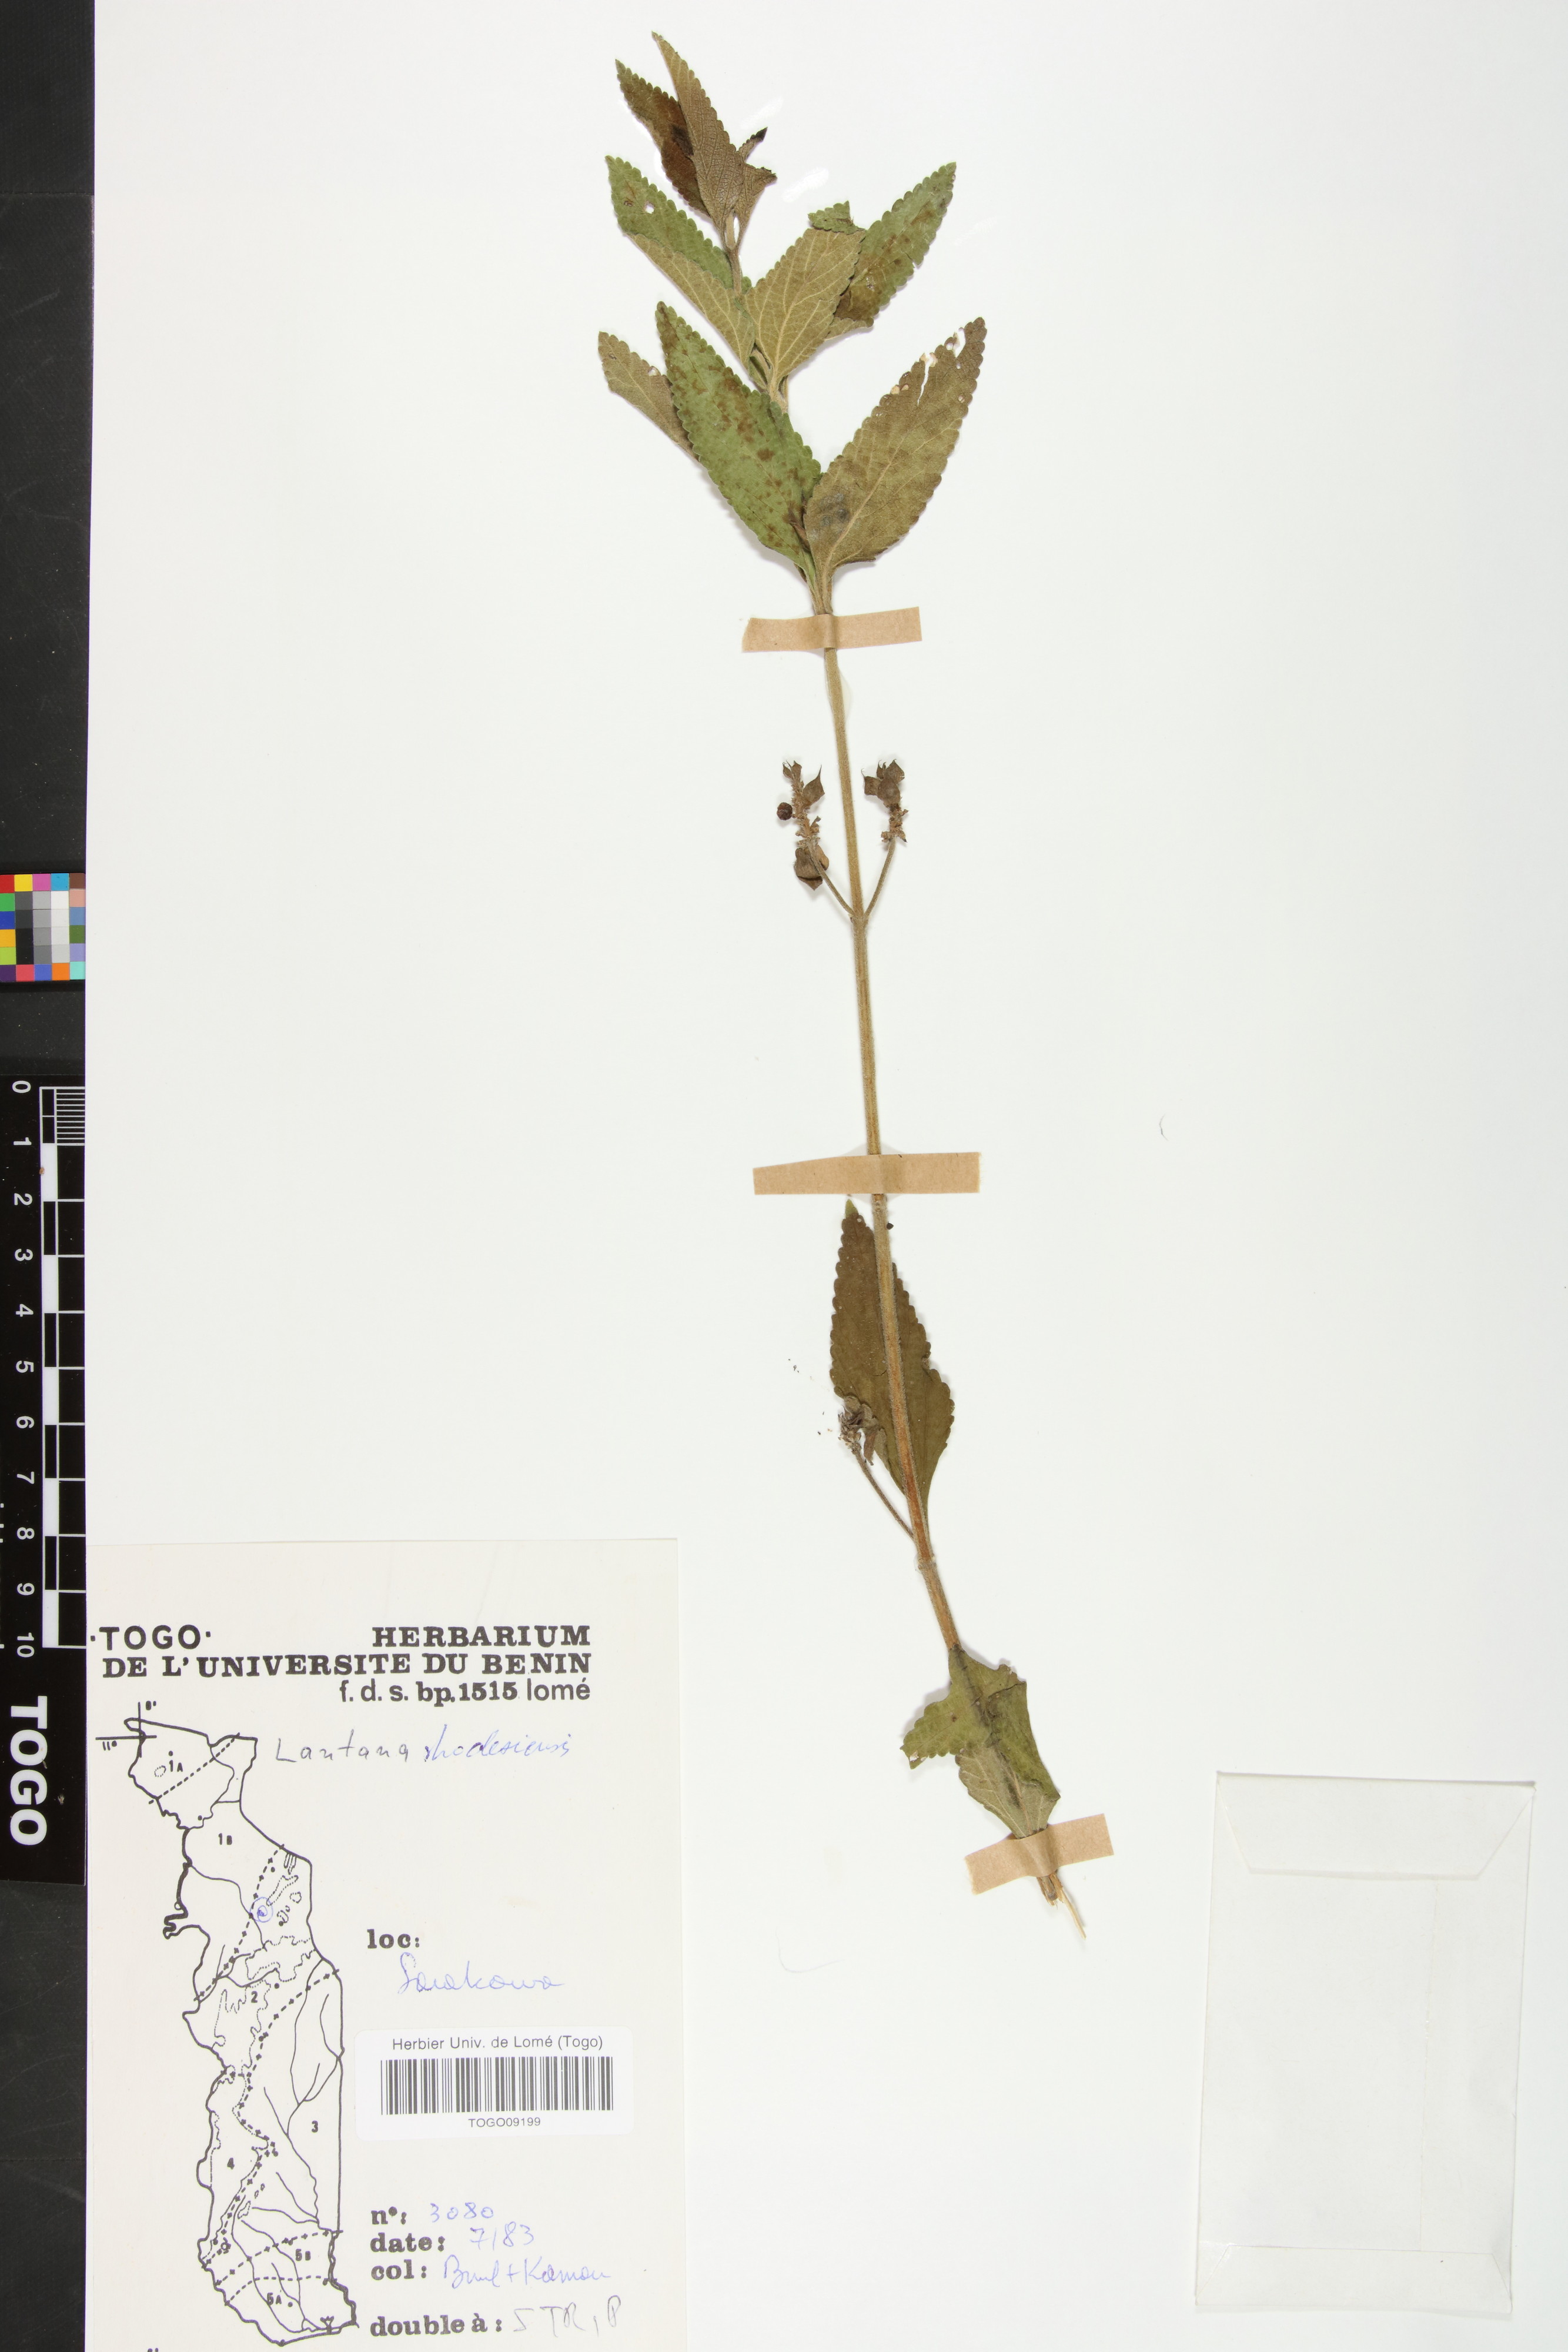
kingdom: Plantae
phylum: Tracheophyta
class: Magnoliopsida
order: Lamiales
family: Verbenaceae
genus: Lantana
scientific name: Lantana ukambensis
